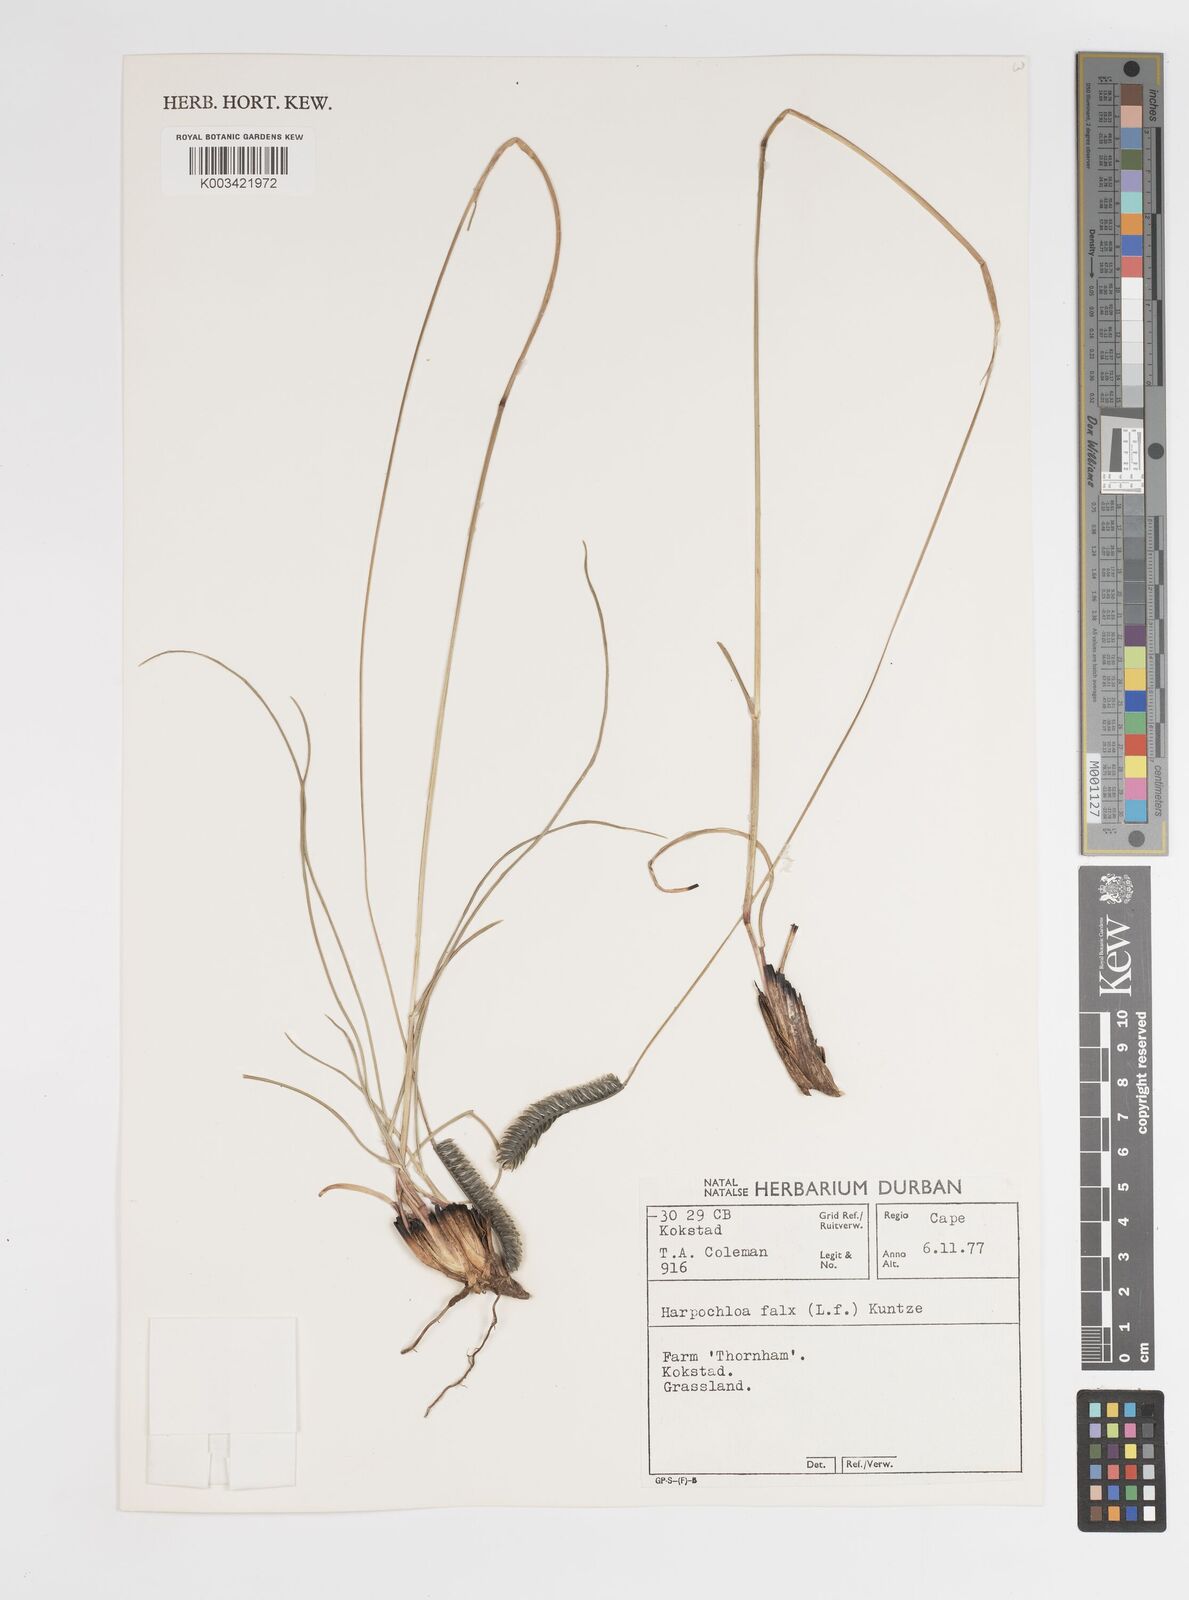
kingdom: Plantae
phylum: Tracheophyta
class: Liliopsida
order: Poales
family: Poaceae
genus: Harpochloa
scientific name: Harpochloa falx
